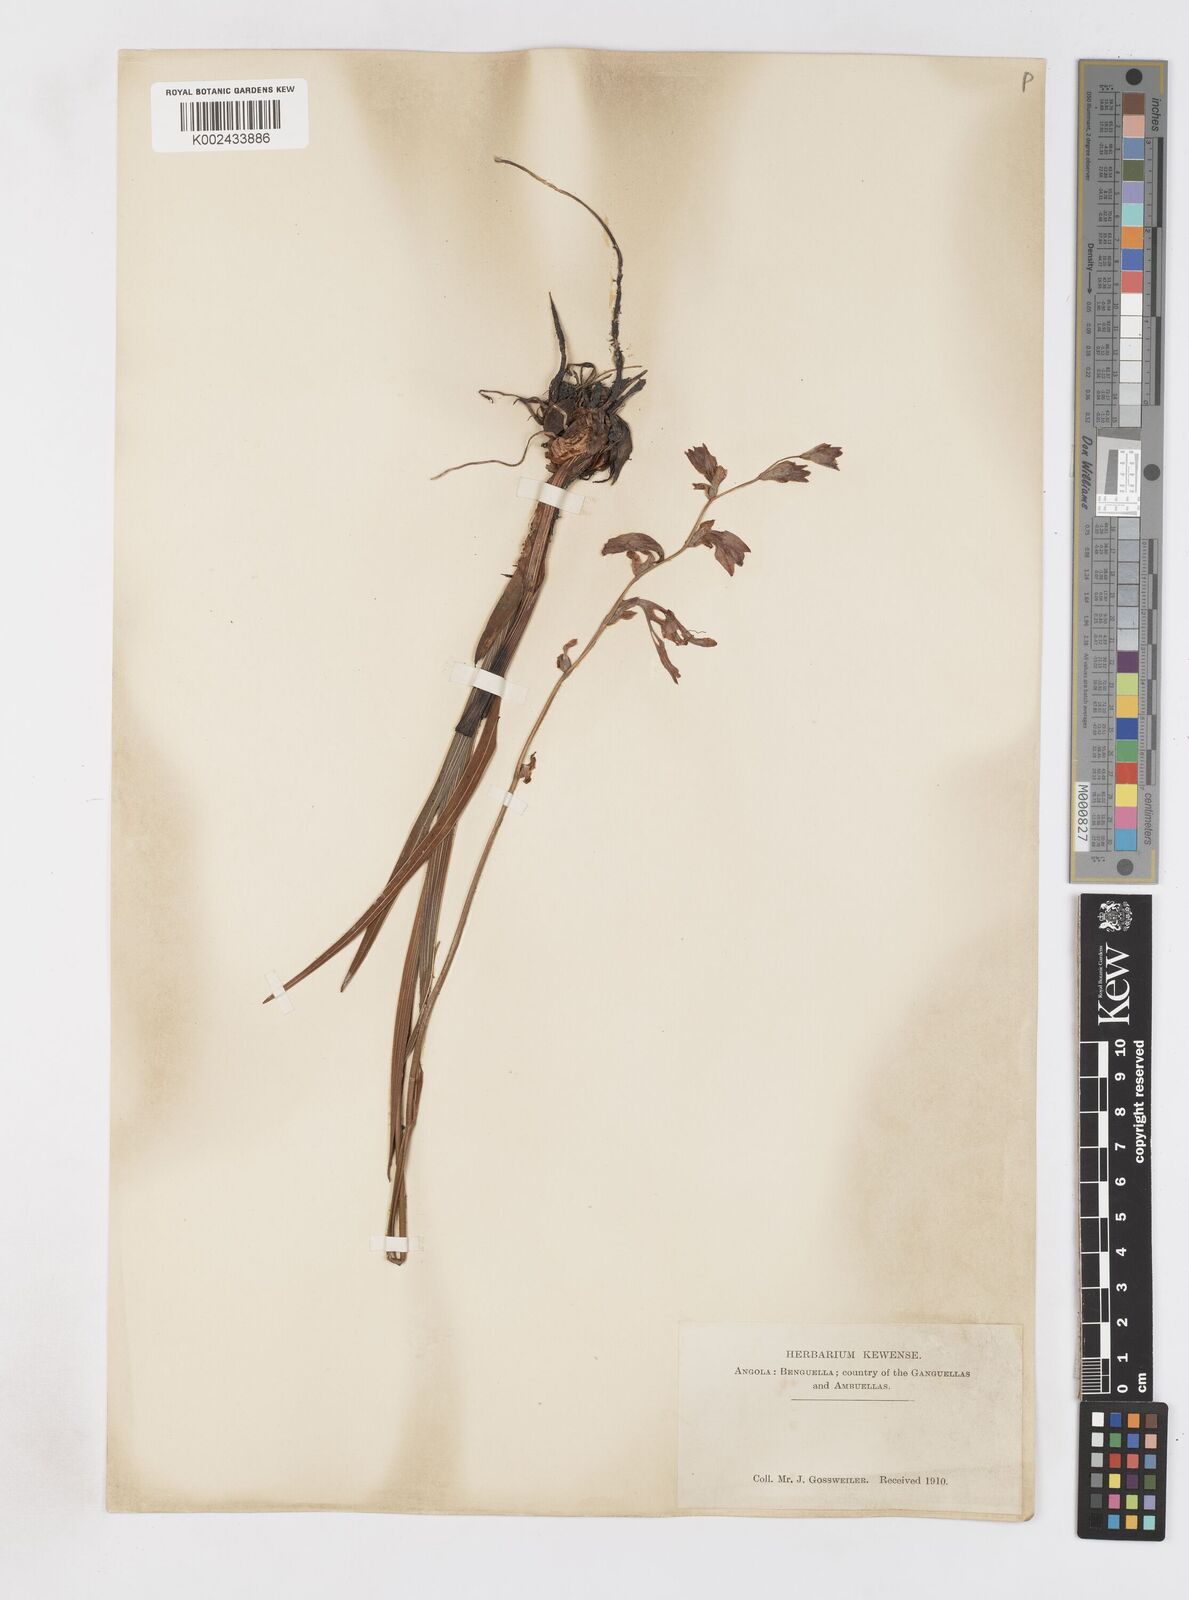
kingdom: Plantae
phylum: Tracheophyta
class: Liliopsida
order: Asparagales
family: Iridaceae
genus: Gladiolus
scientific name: Gladiolus laxiflorus
